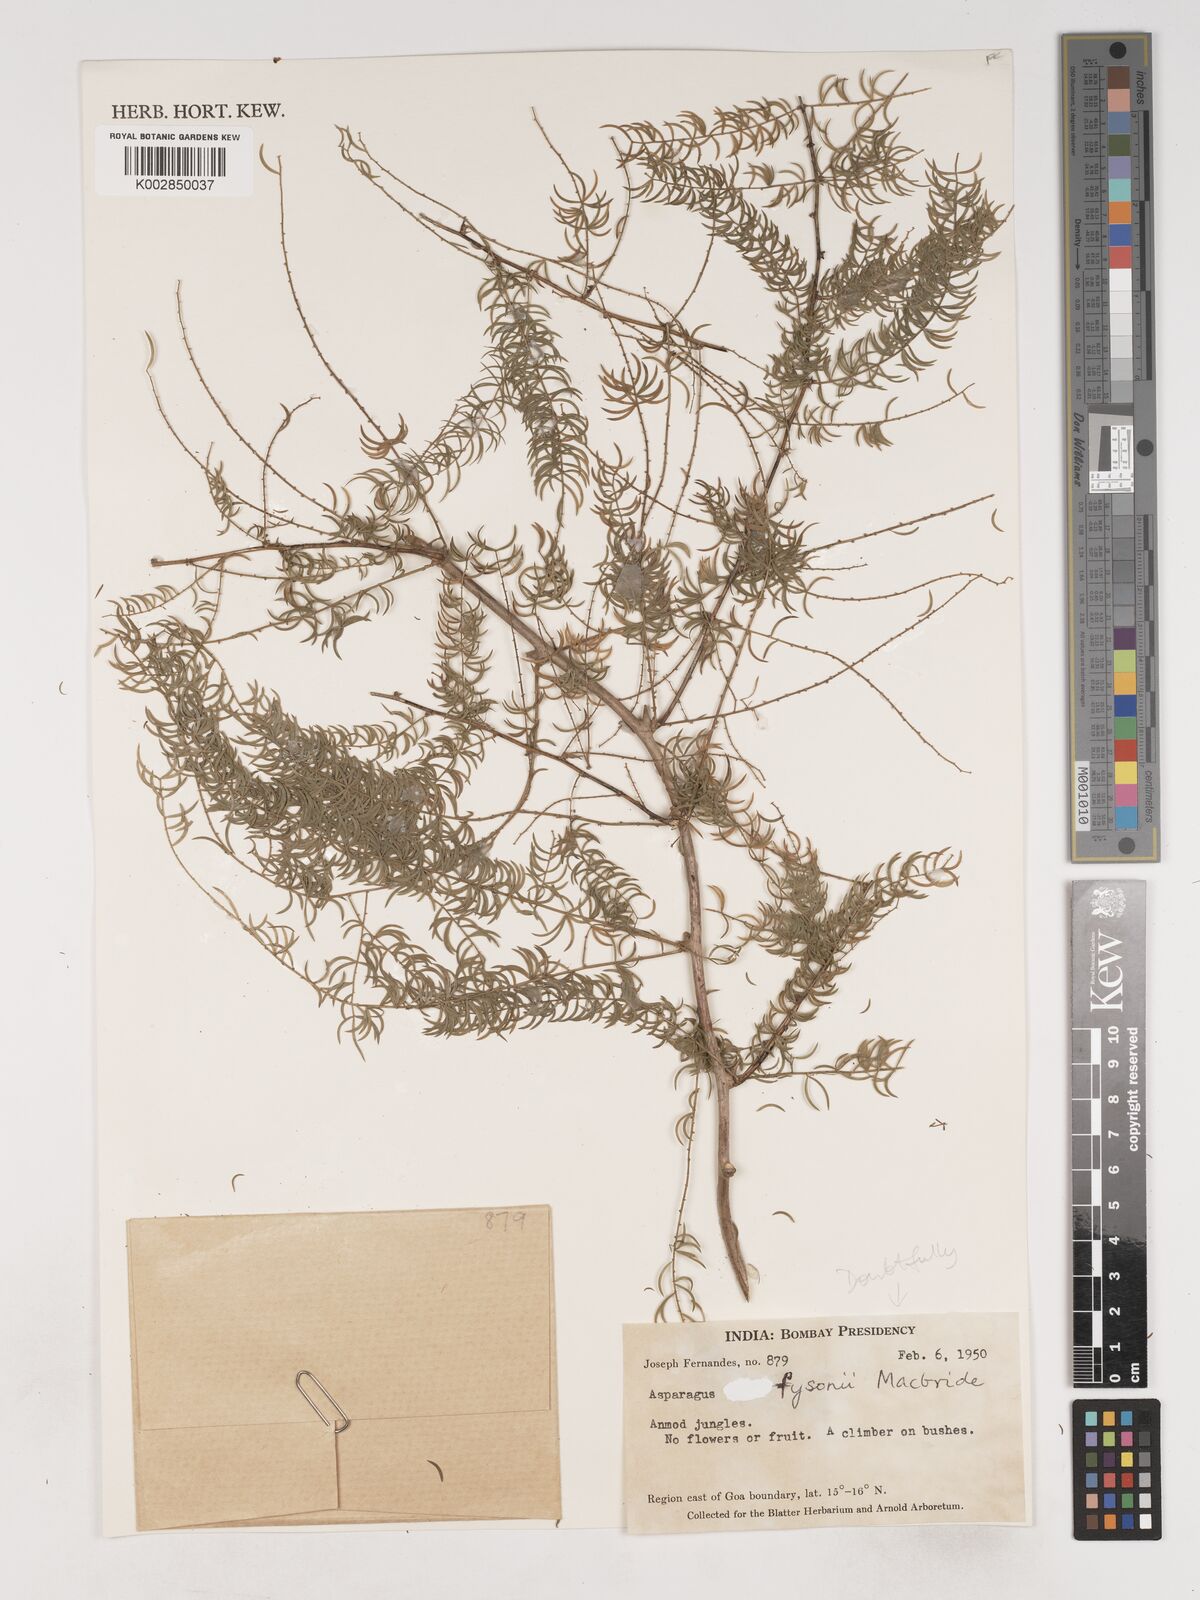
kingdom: Plantae
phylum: Tracheophyta
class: Liliopsida
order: Asparagales
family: Asparagaceae
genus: Asparagus
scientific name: Asparagus fysonii
